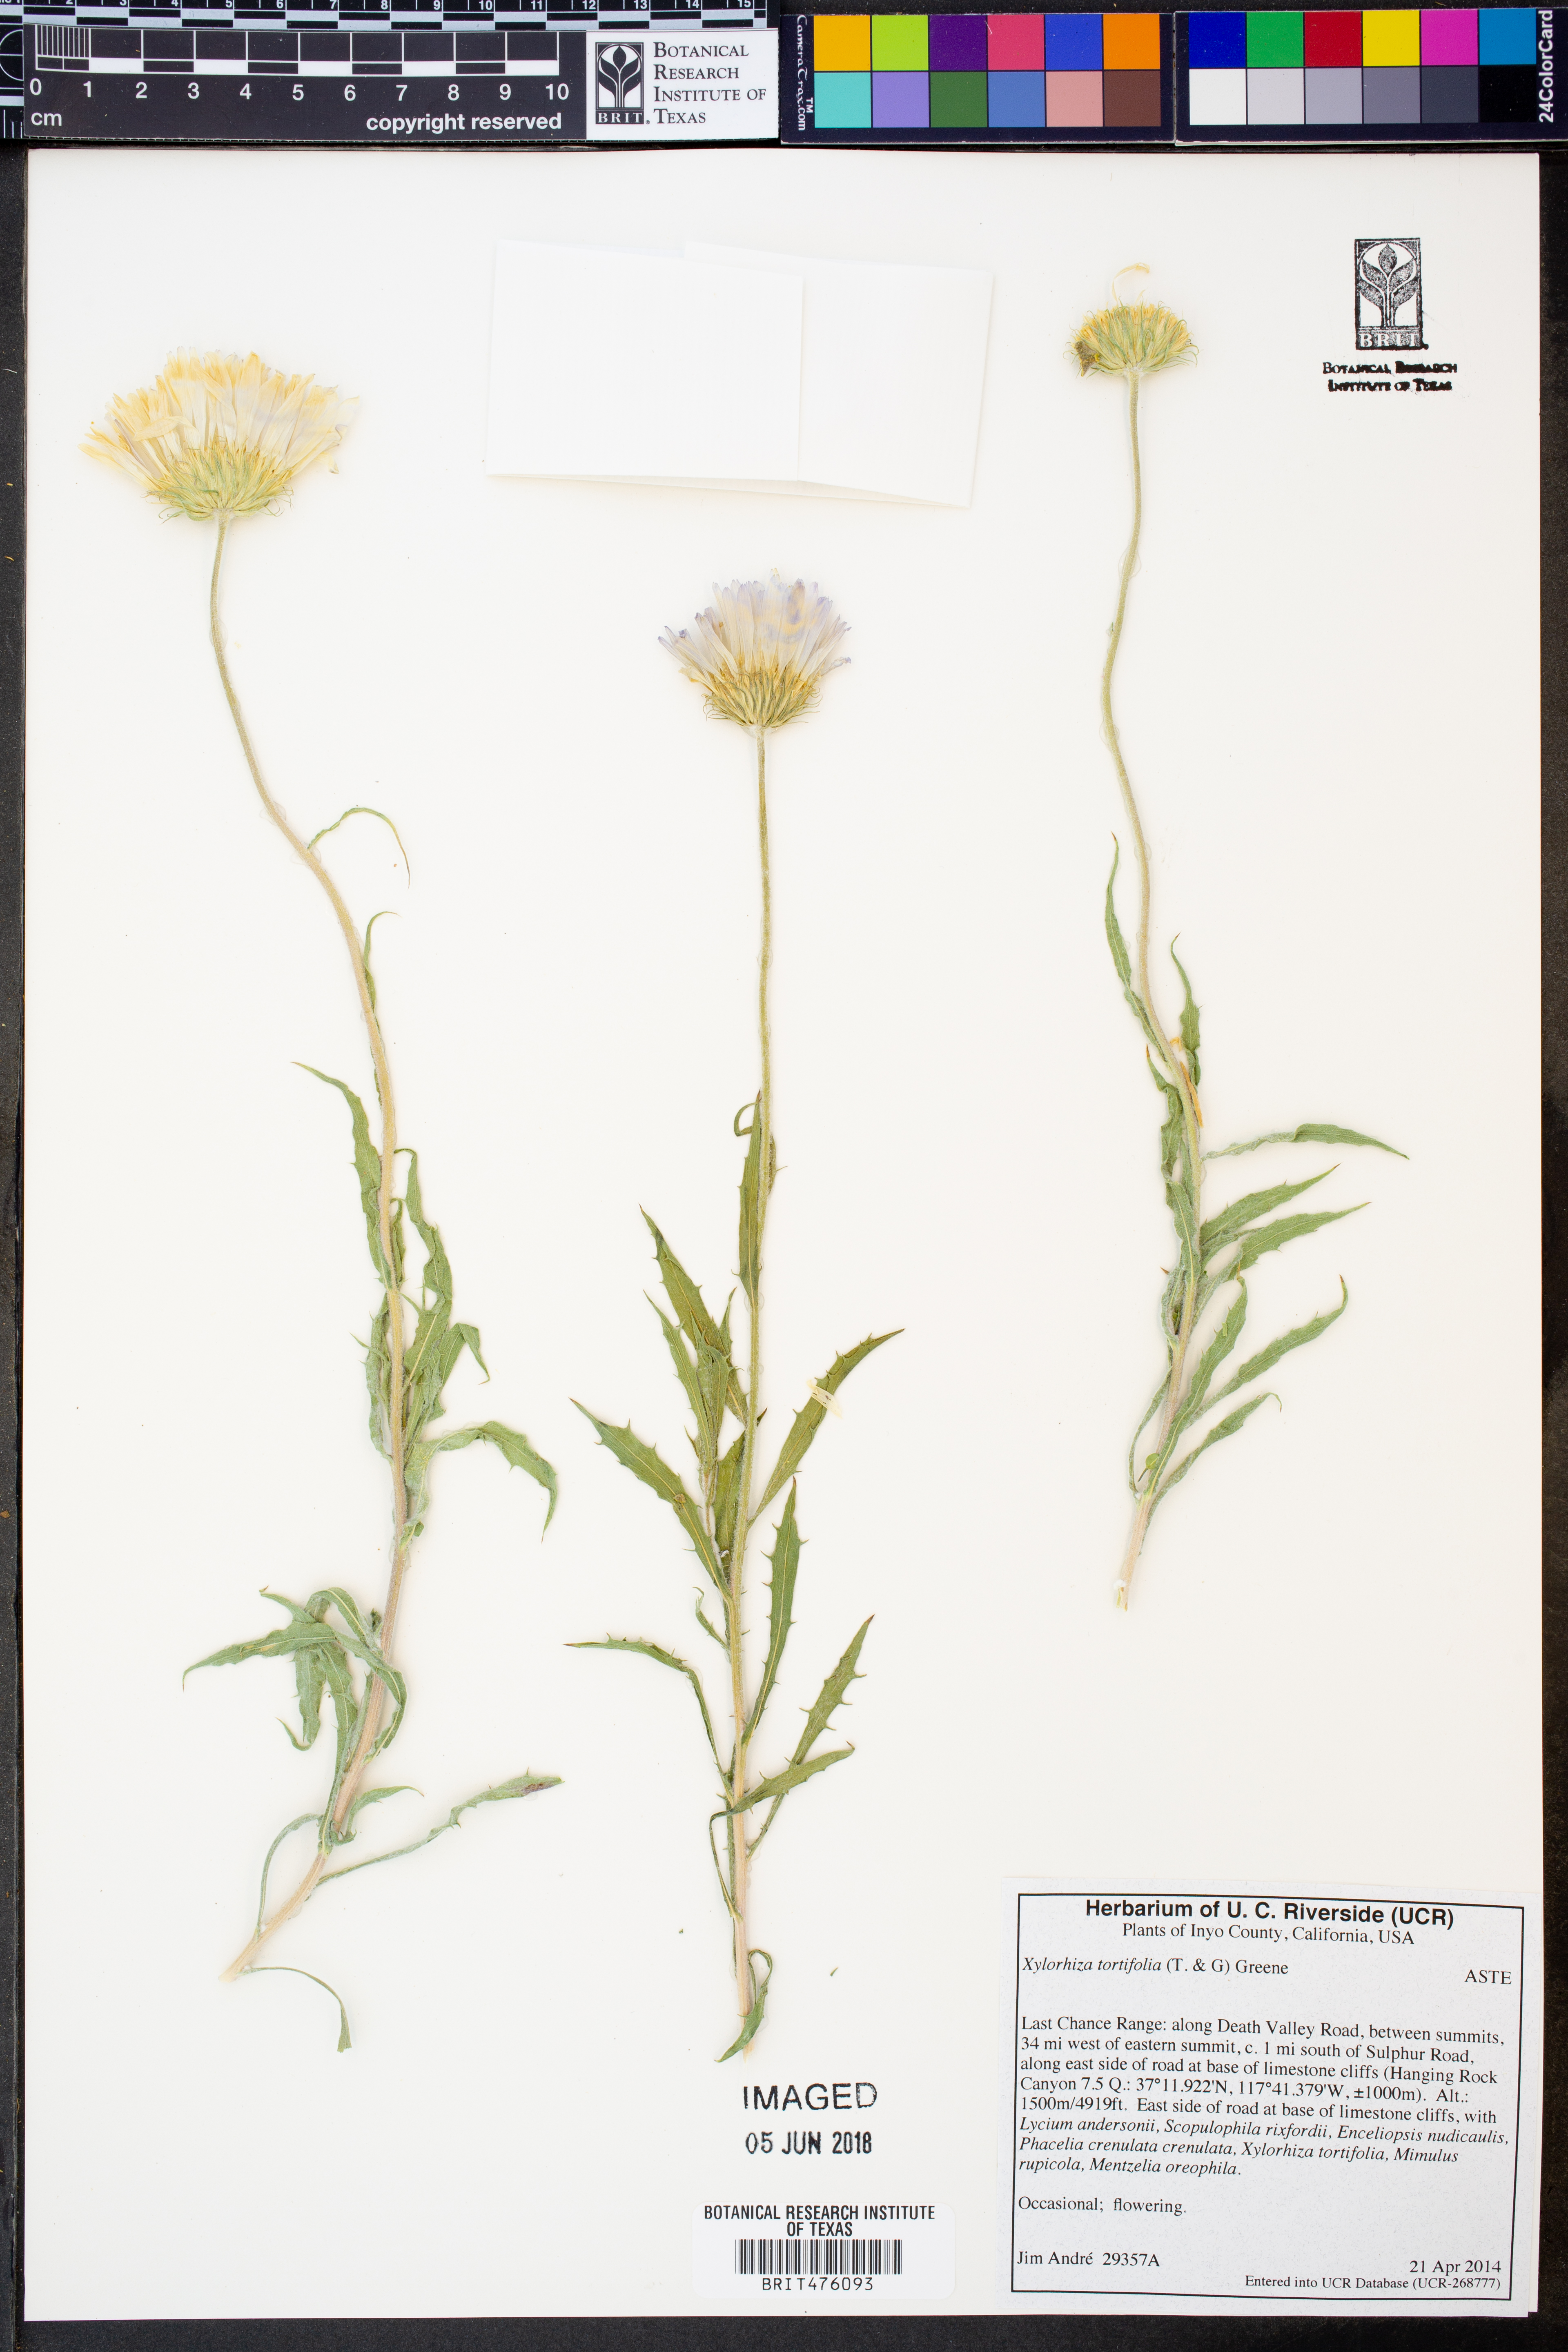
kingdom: Plantae
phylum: Tracheophyta
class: Magnoliopsida
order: Asterales
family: Asteraceae
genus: Xylorhiza
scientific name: Xylorhiza tortifolia
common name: Hurt-leaf woody-aster
